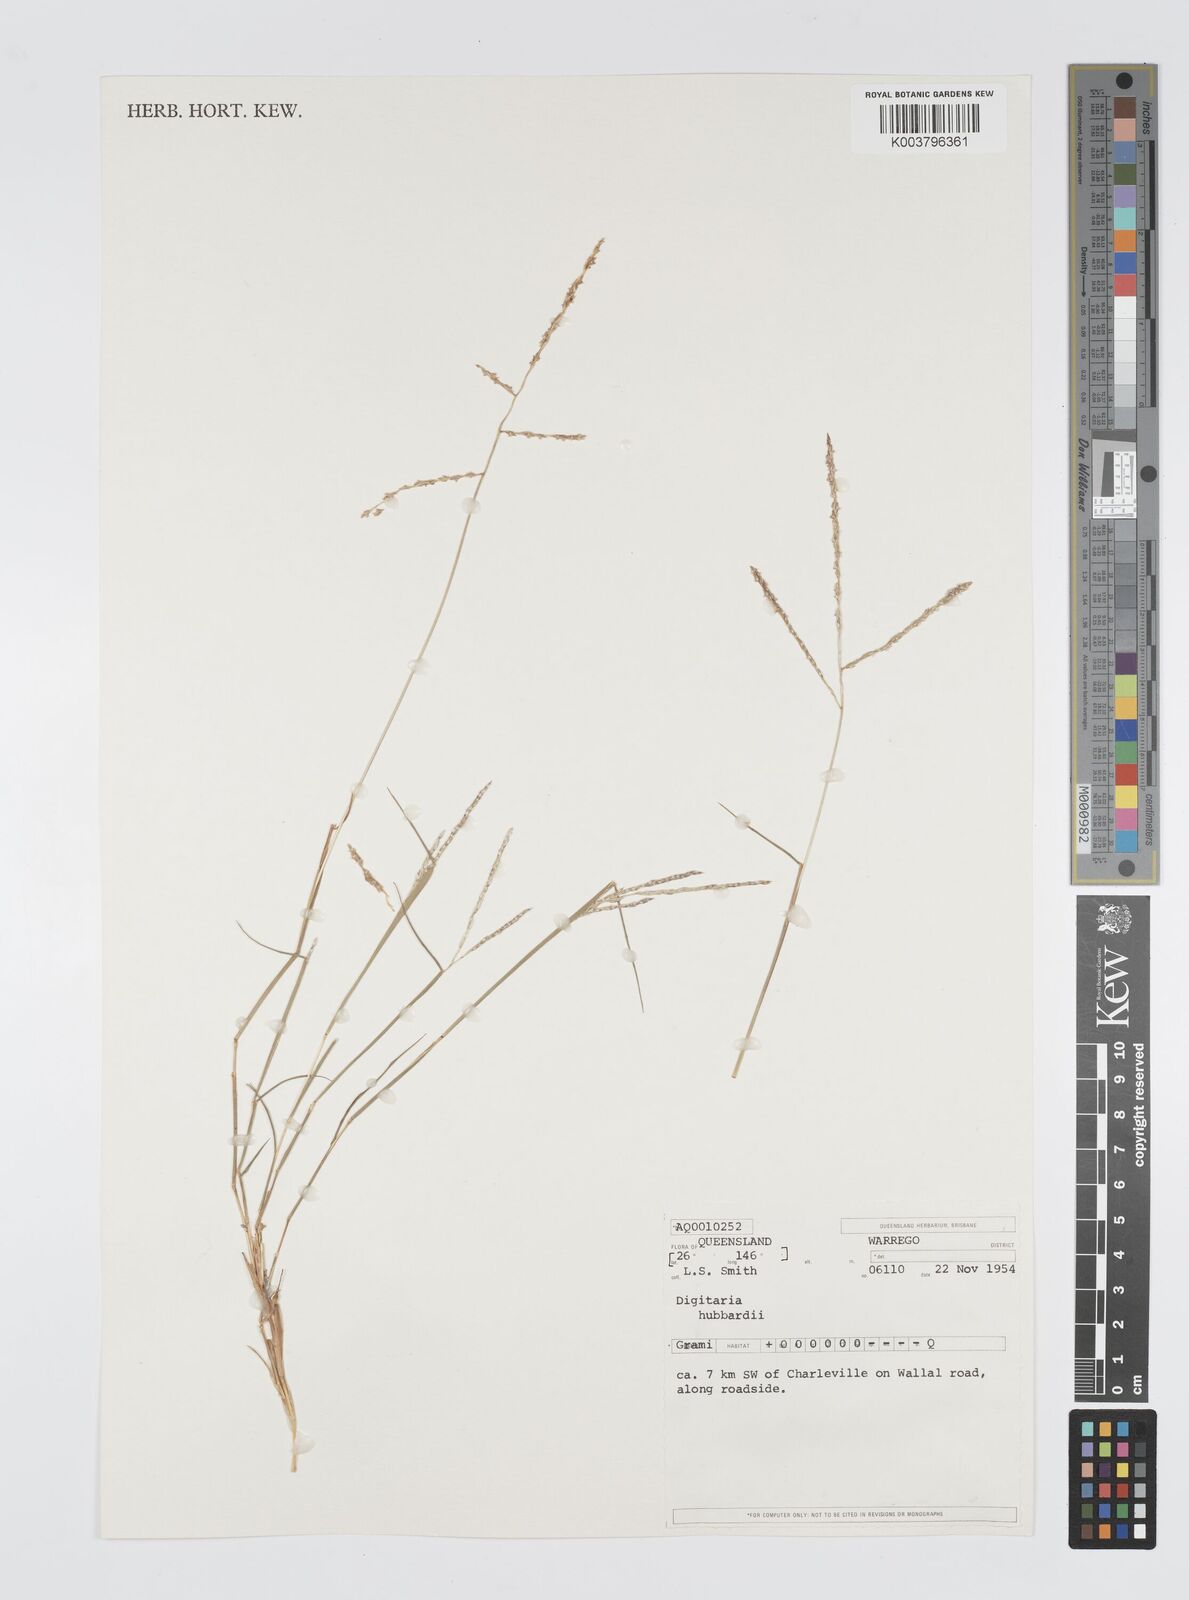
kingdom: Plantae
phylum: Tracheophyta
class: Liliopsida
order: Poales
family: Poaceae
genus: Digitaria
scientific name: Digitaria hubbardii
